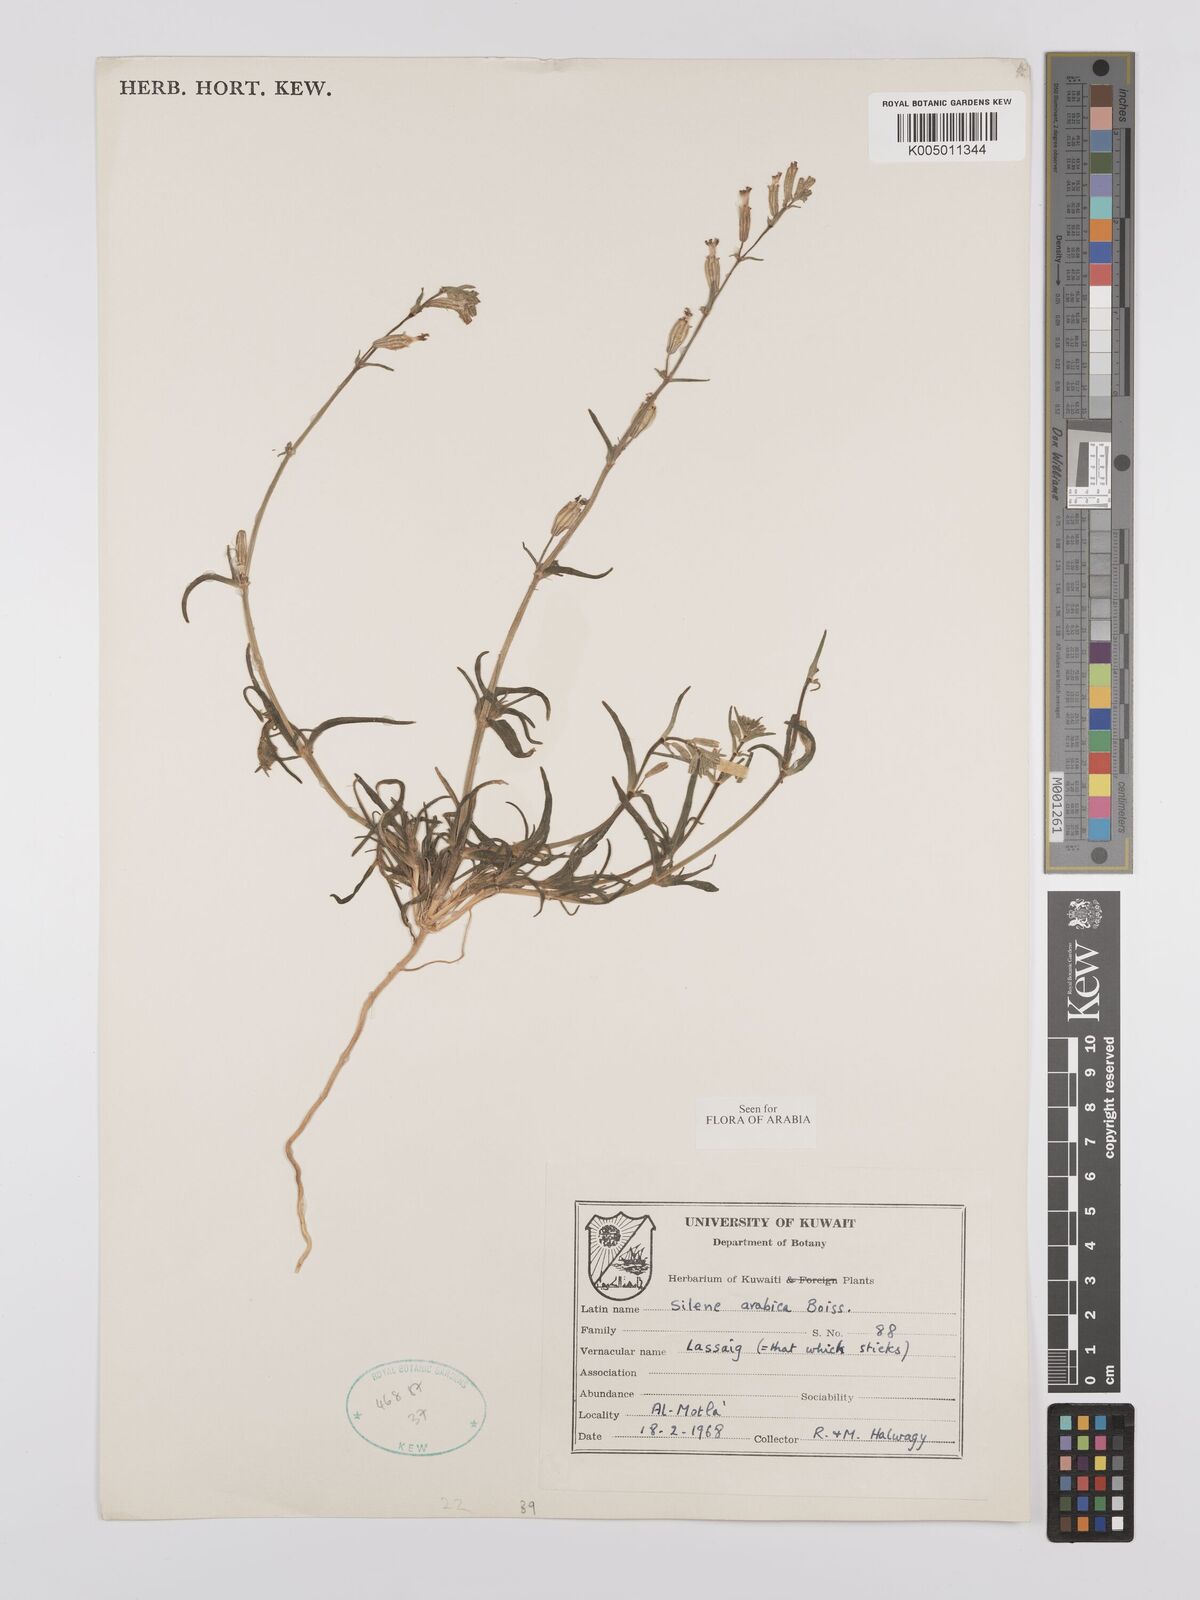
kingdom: Plantae
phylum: Tracheophyta
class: Magnoliopsida
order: Caryophyllales
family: Caryophyllaceae
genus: Silene
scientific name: Silene arabica
